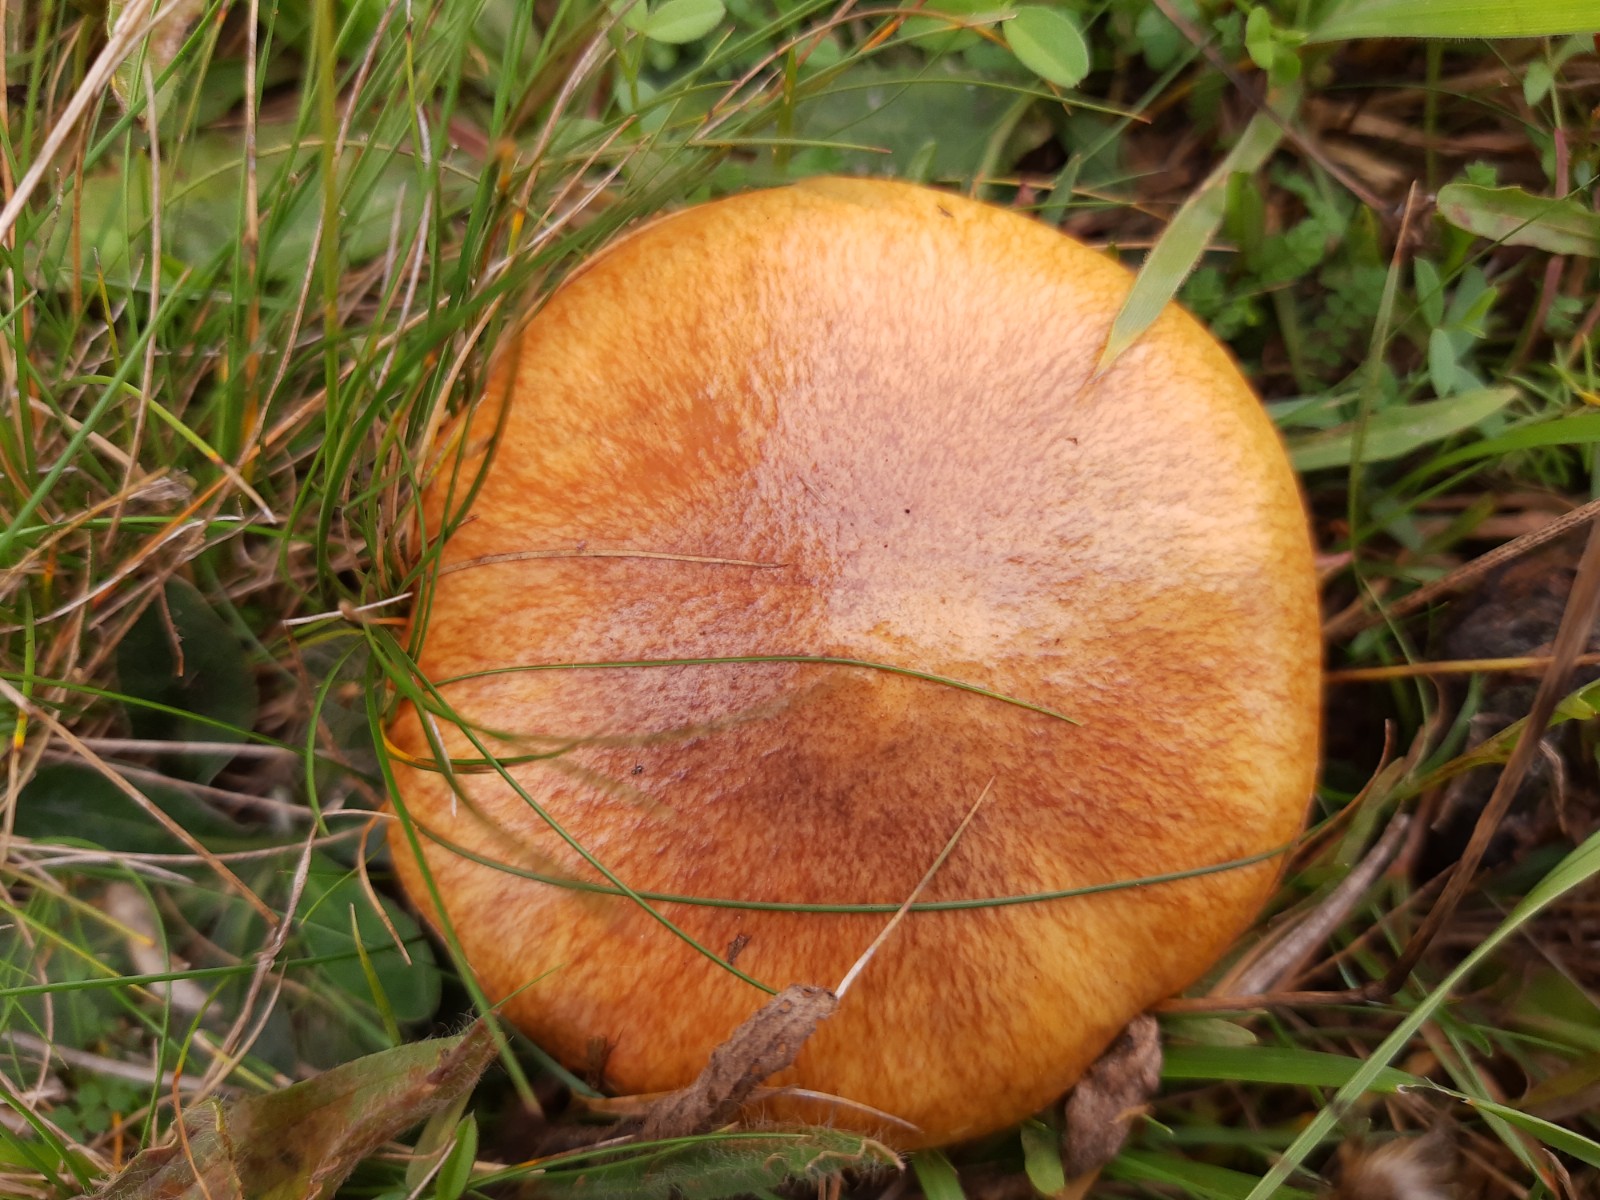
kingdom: Fungi
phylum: Basidiomycota
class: Agaricomycetes
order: Boletales
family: Suillaceae
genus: Suillus
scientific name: Suillus luteus
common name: brungul slimrørhat
